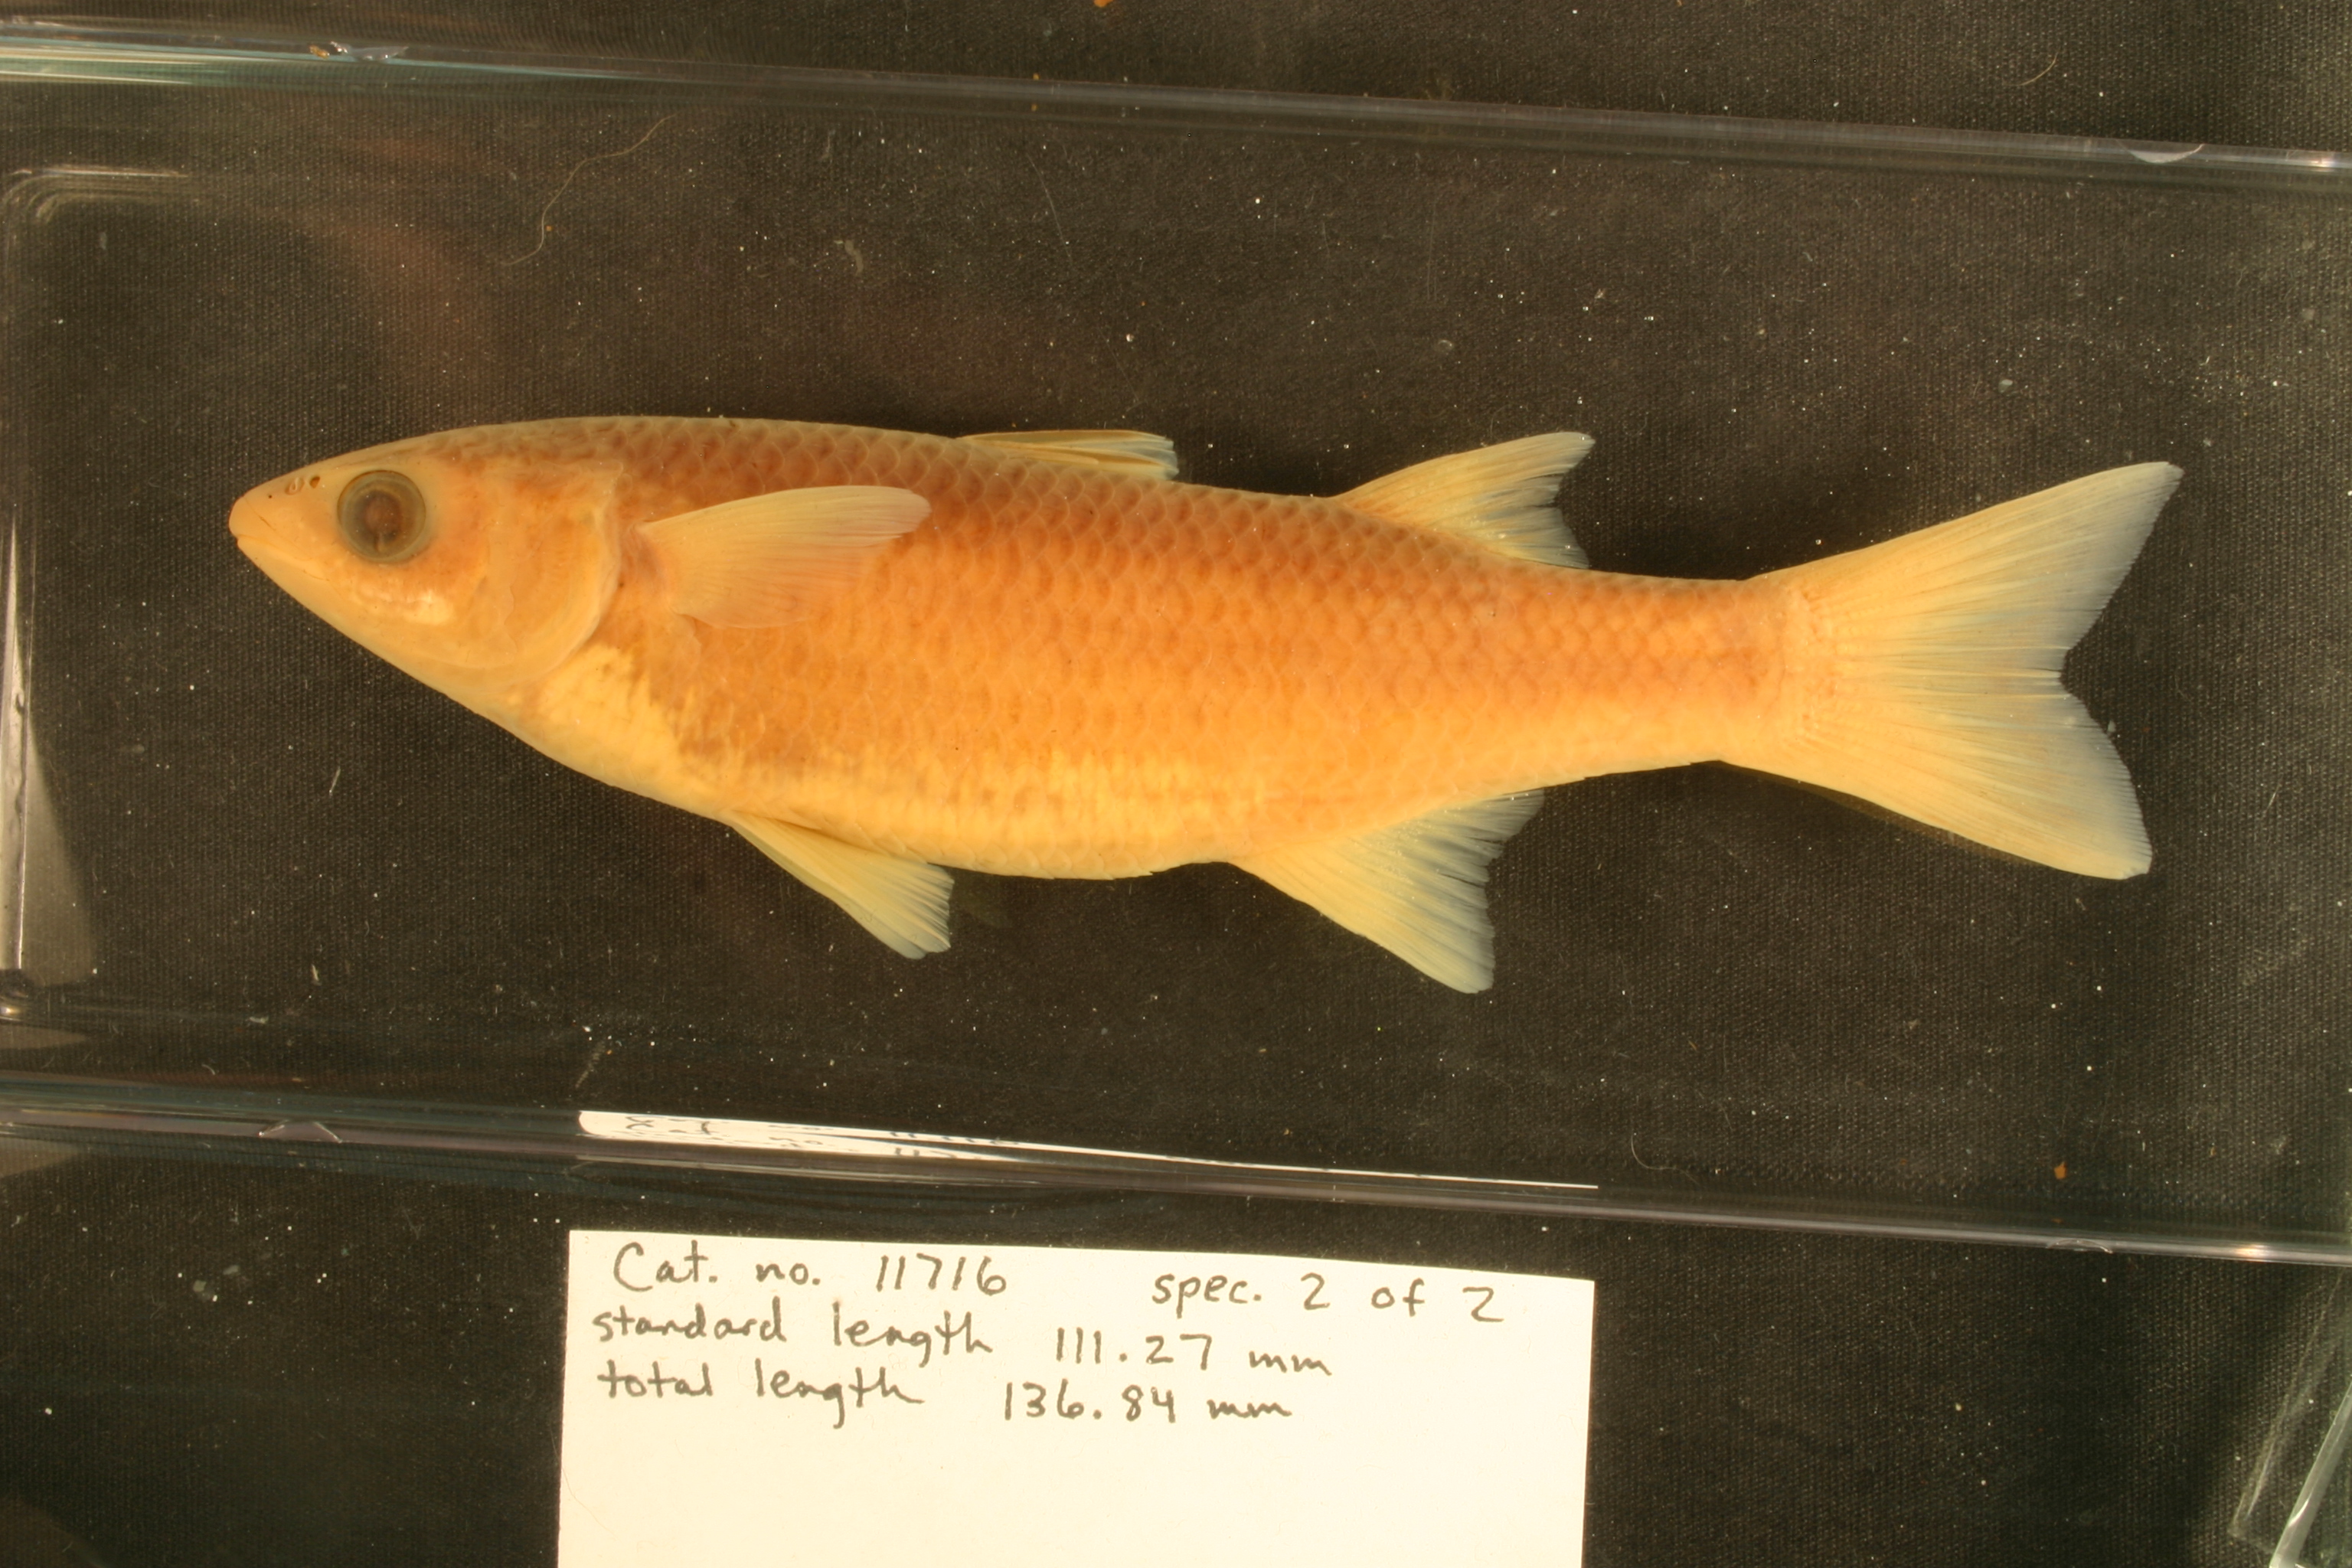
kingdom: Animalia
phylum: Chordata
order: Mugiliformes
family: Mugilidae
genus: Dajaus
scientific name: Dajaus monticola
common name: Mountain mullet
